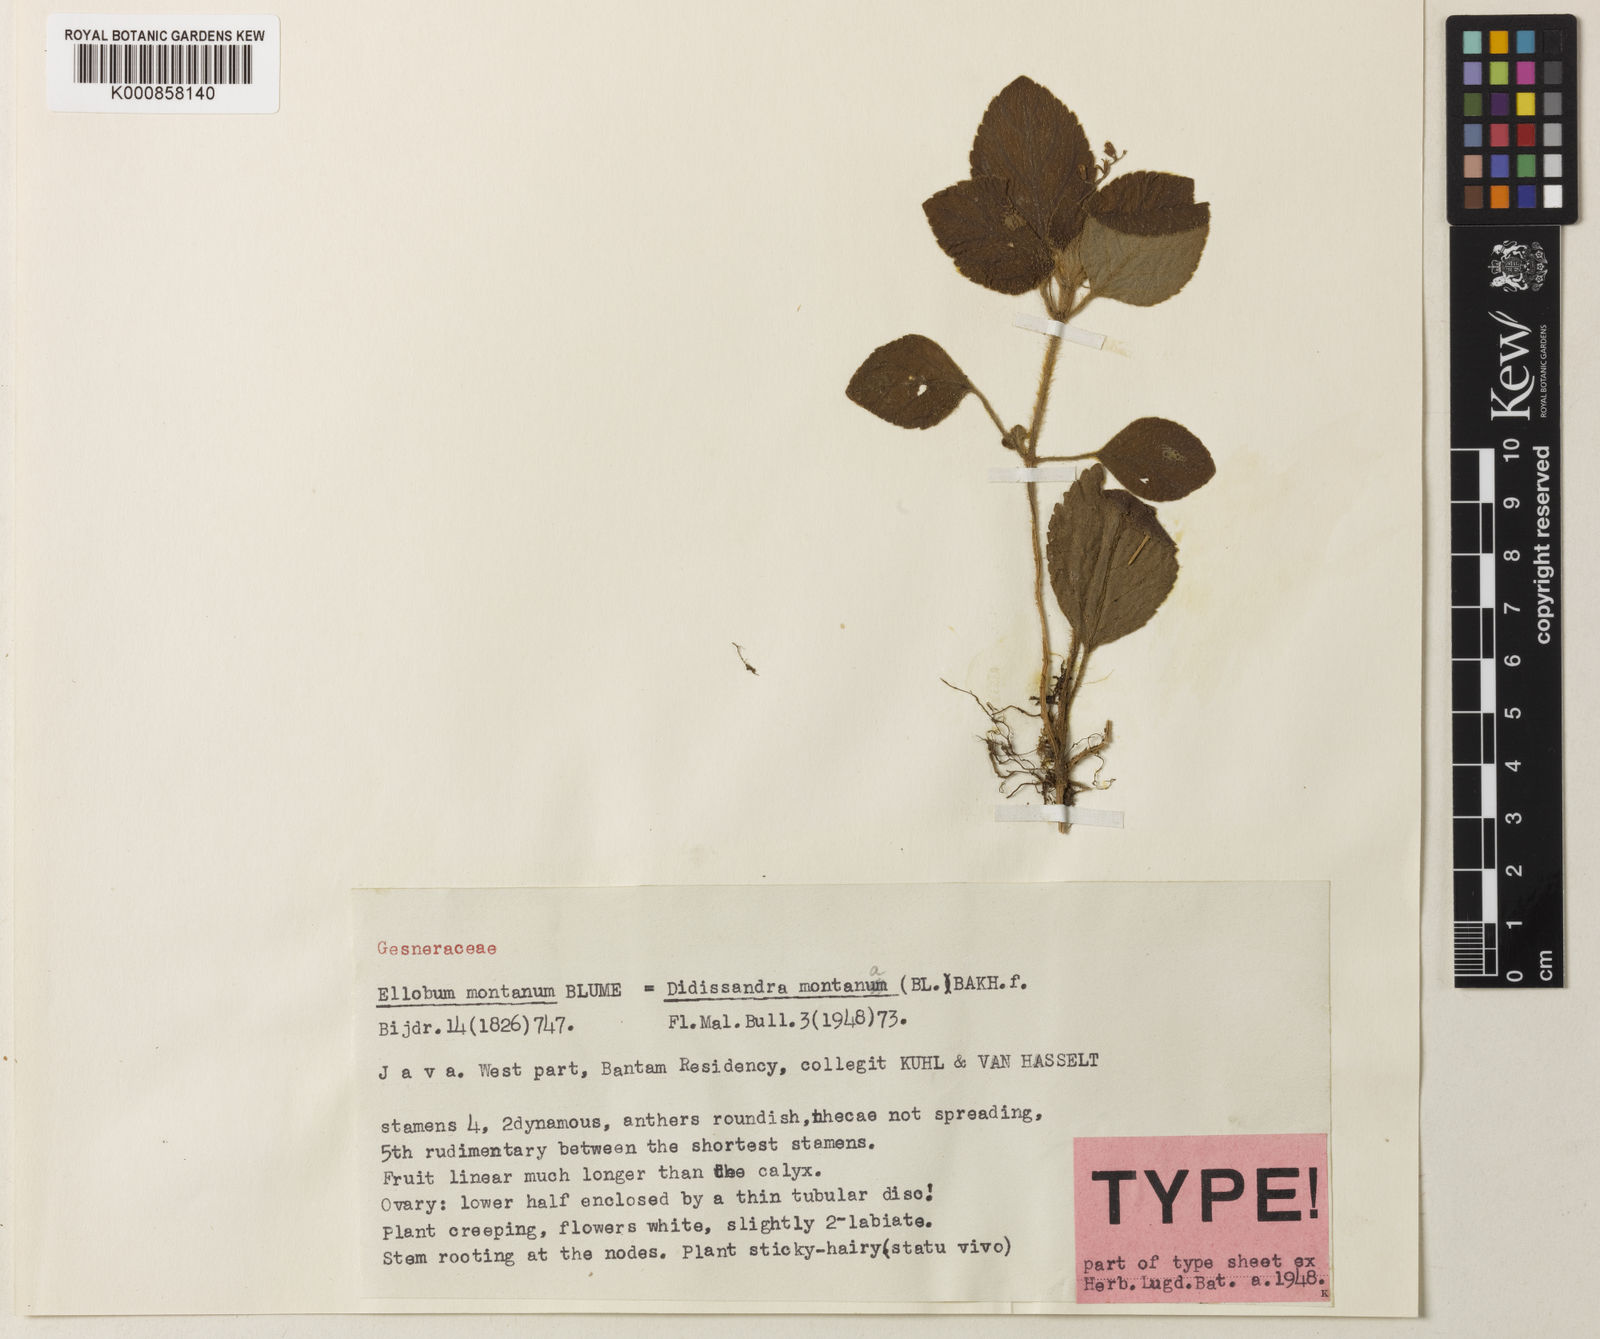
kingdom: Plantae
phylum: Tracheophyta
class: Magnoliopsida
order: Lamiales
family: Gesneriaceae
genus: Didissandra
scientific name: Didissandra elongata
